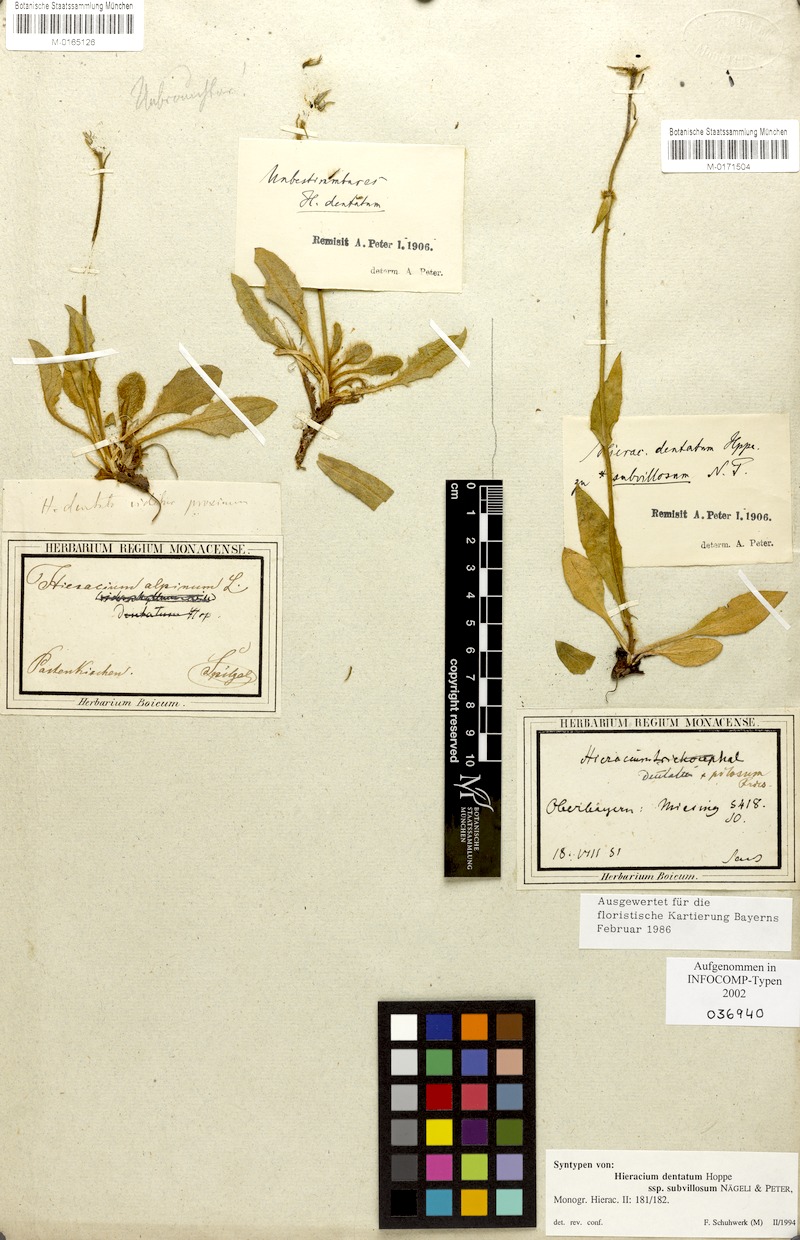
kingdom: Plantae
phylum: Tracheophyta
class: Magnoliopsida
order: Asterales
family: Asteraceae
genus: Hieracium
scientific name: Hieracium dentatum
